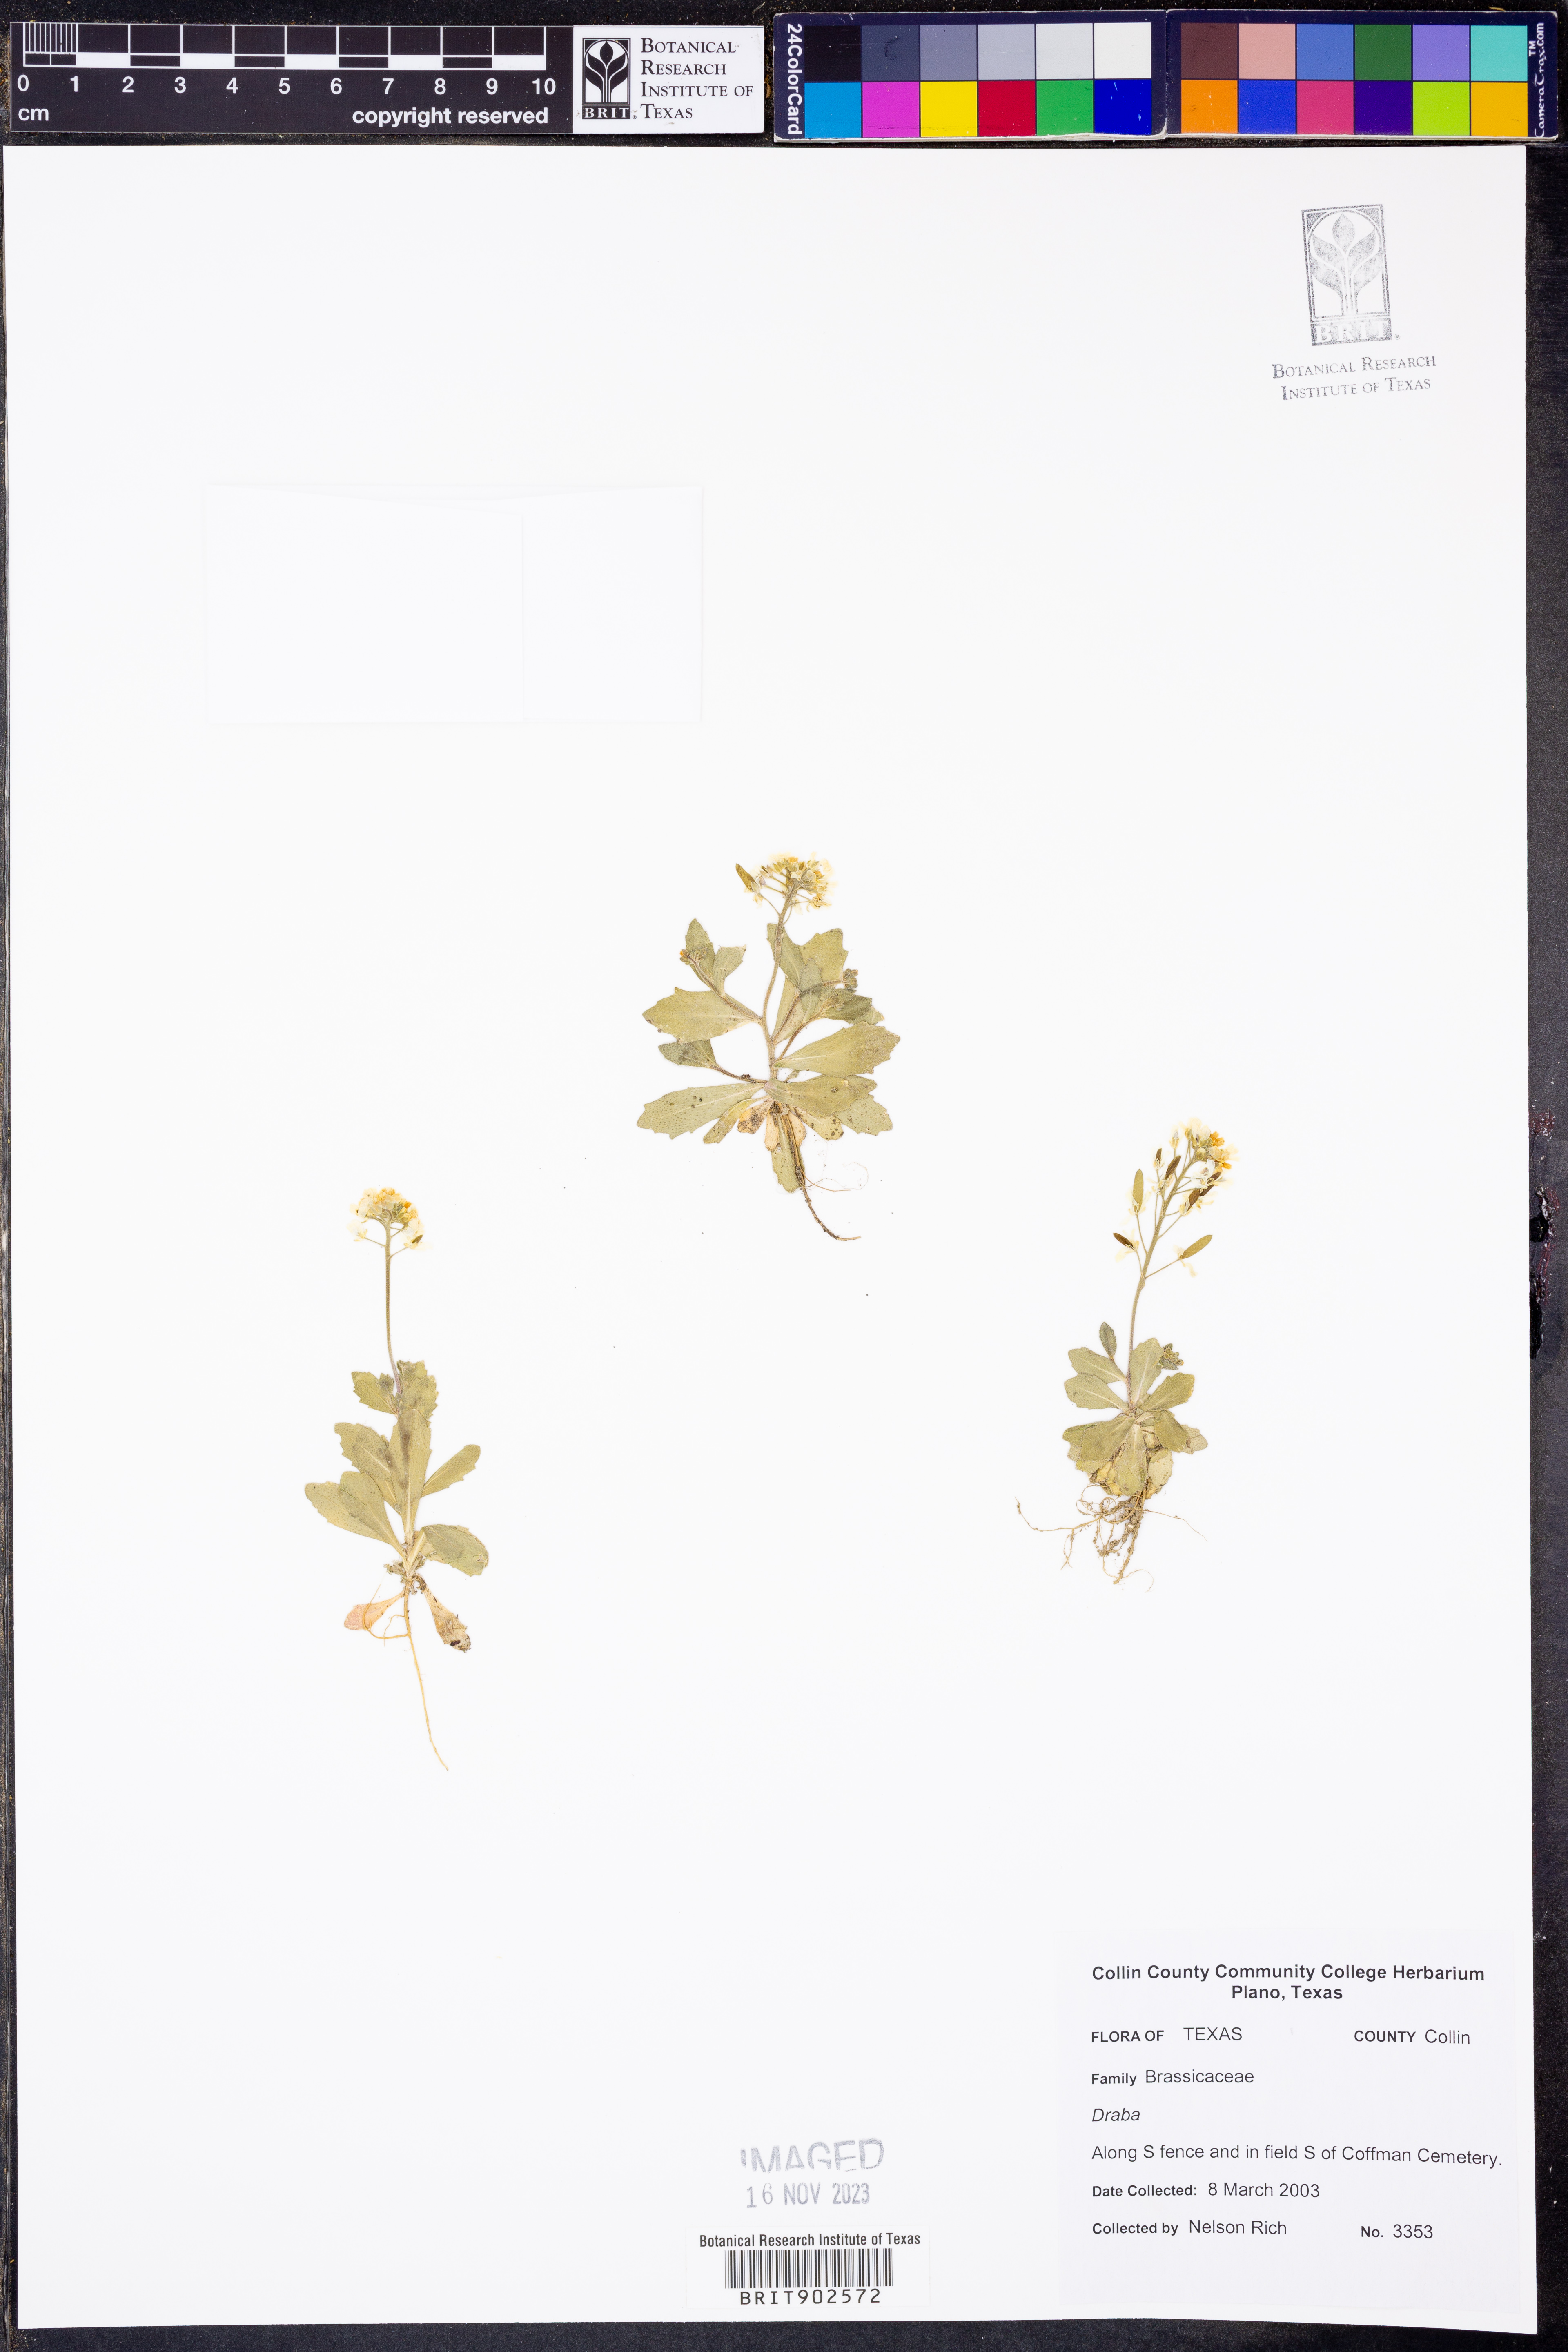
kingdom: Plantae
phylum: Tracheophyta
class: Magnoliopsida
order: Brassicales
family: Brassicaceae
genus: Draba
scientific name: Draba
